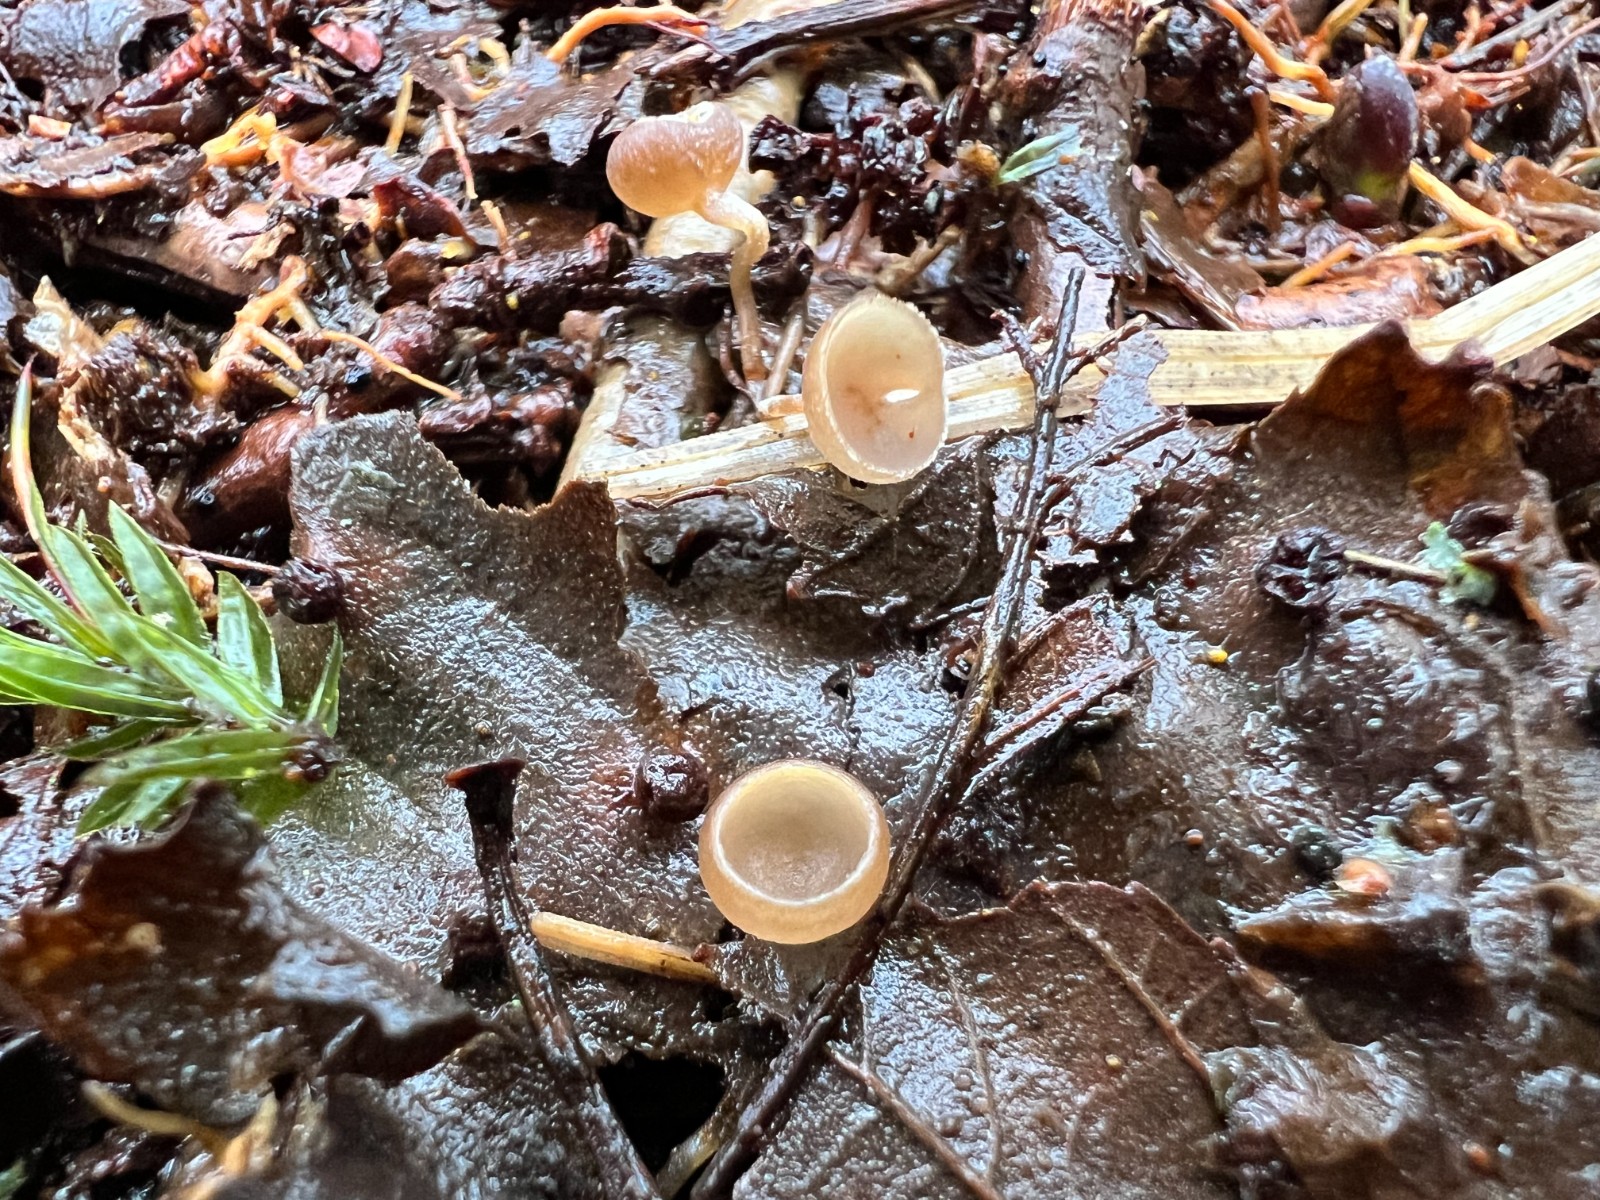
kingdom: Fungi
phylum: Ascomycota
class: Leotiomycetes
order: Helotiales
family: Sclerotiniaceae
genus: Ciboria
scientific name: Ciboria amentacea
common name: ellerakle-knoldskive
